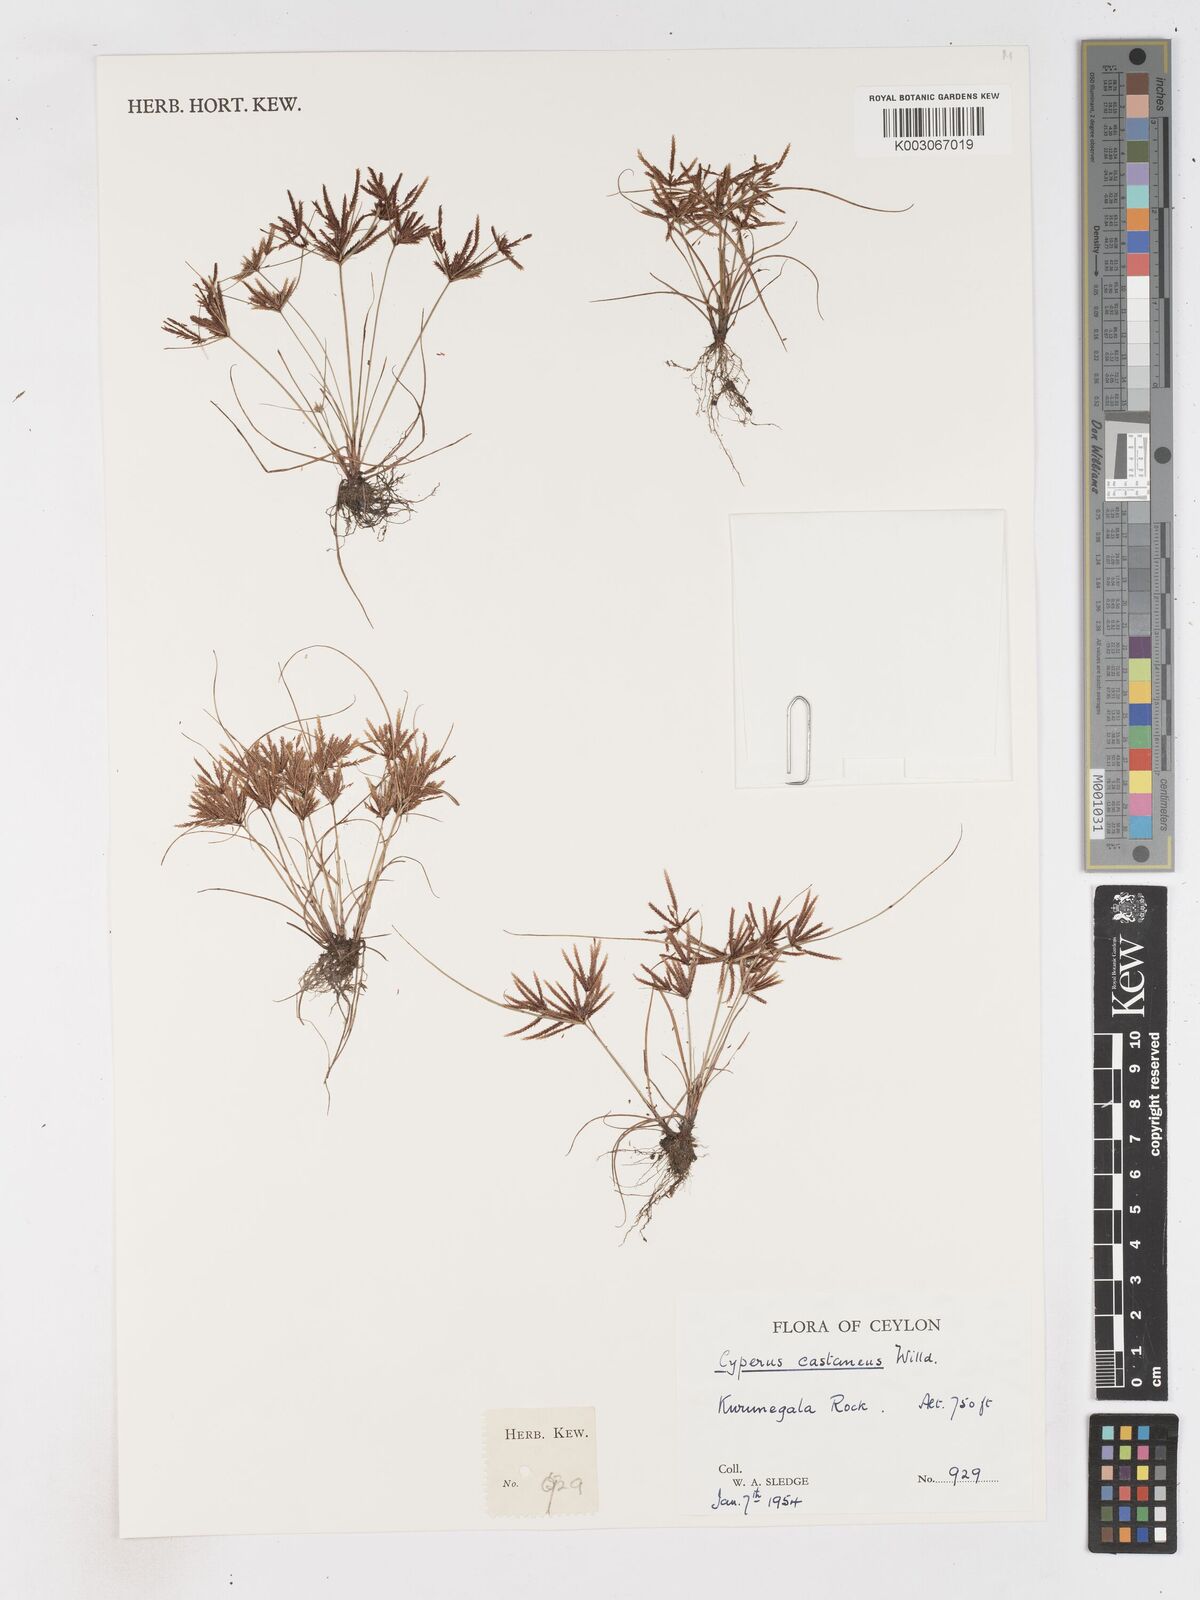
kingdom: Plantae
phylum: Tracheophyta
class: Liliopsida
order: Poales
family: Cyperaceae
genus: Cyperus
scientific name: Cyperus castaneus
